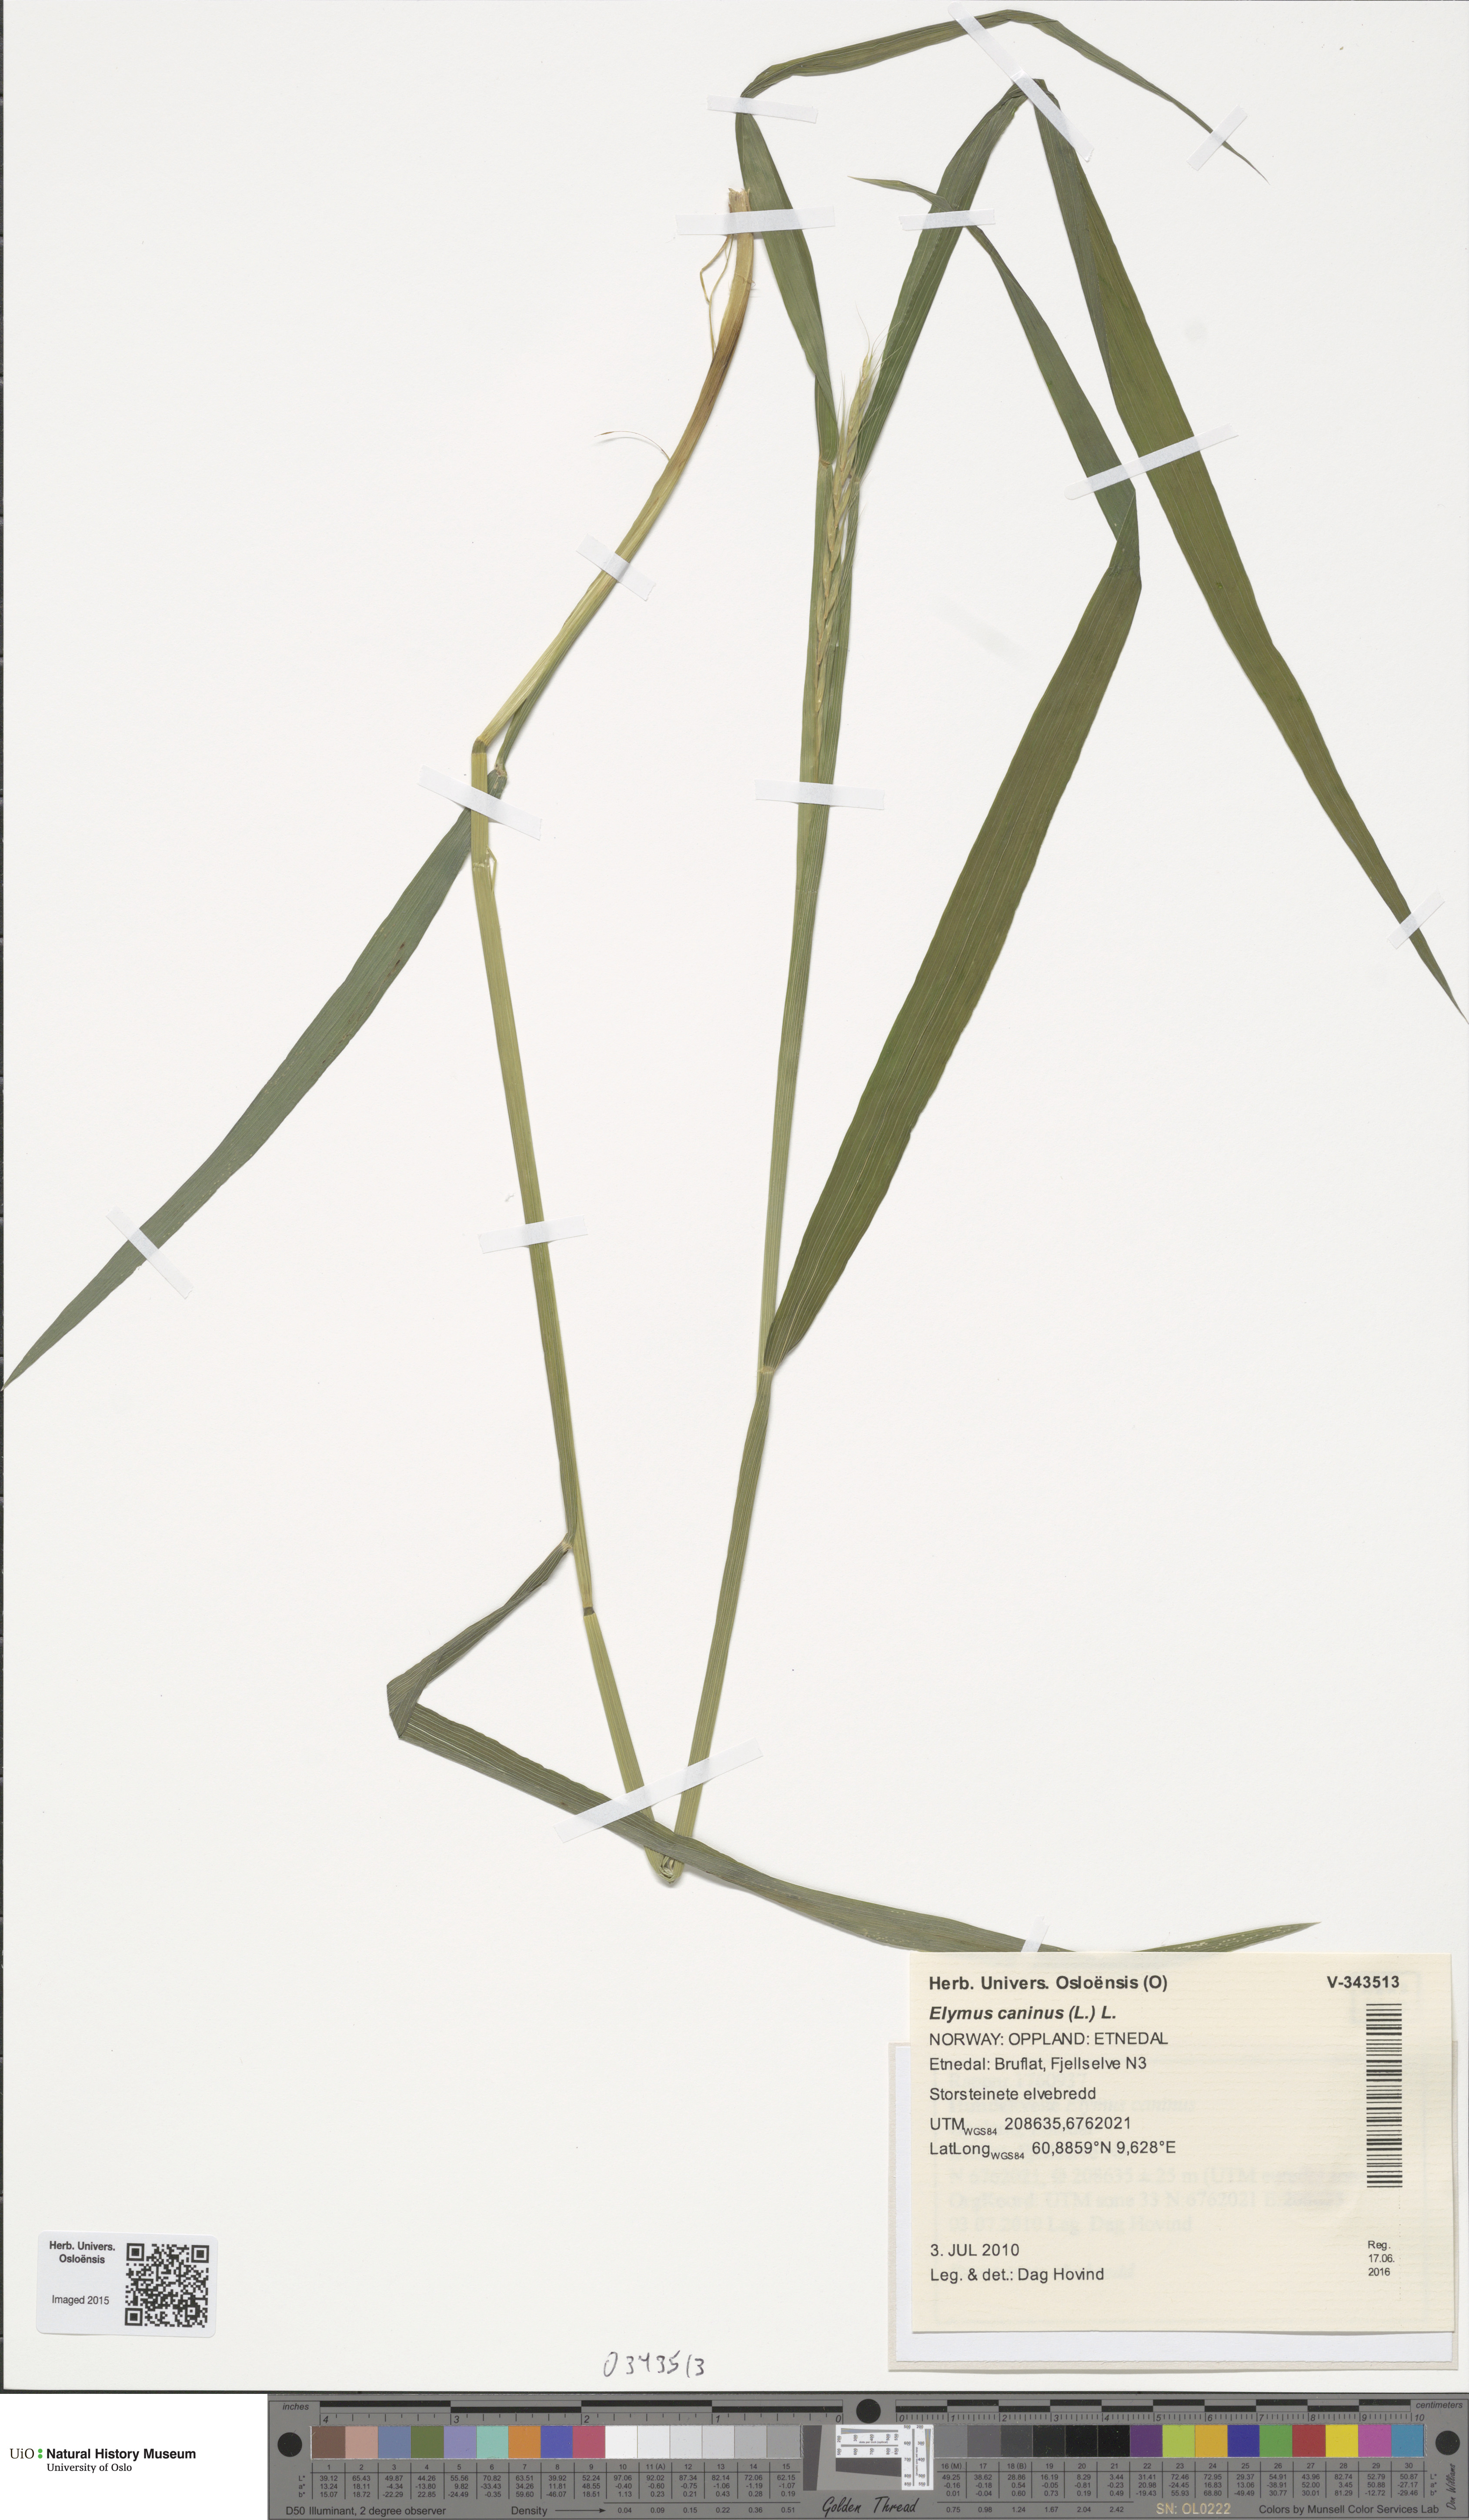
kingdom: Plantae
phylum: Tracheophyta
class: Liliopsida
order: Poales
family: Poaceae
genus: Elymus
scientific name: Elymus caninus
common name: Bearded couch
